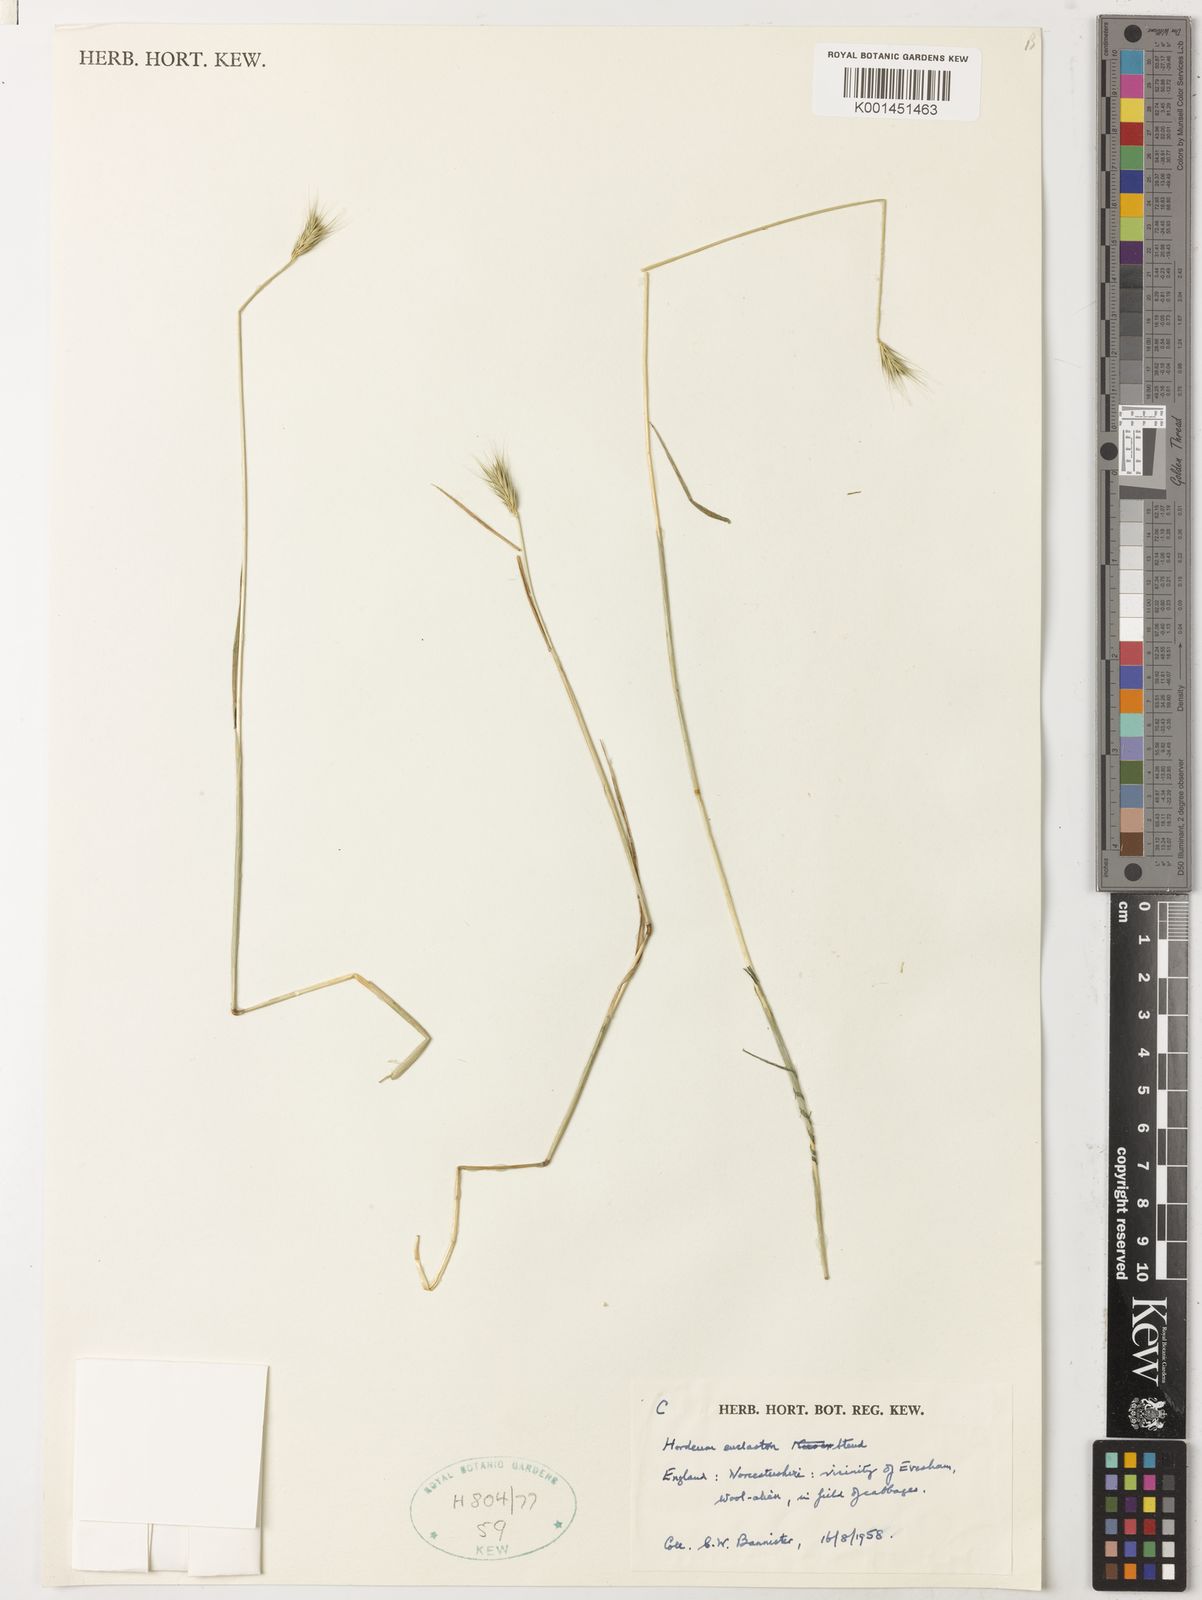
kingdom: Plantae
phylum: Tracheophyta
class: Liliopsida
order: Poales
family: Poaceae
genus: Hordeum
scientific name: Hordeum euclaston
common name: Argentine barley
